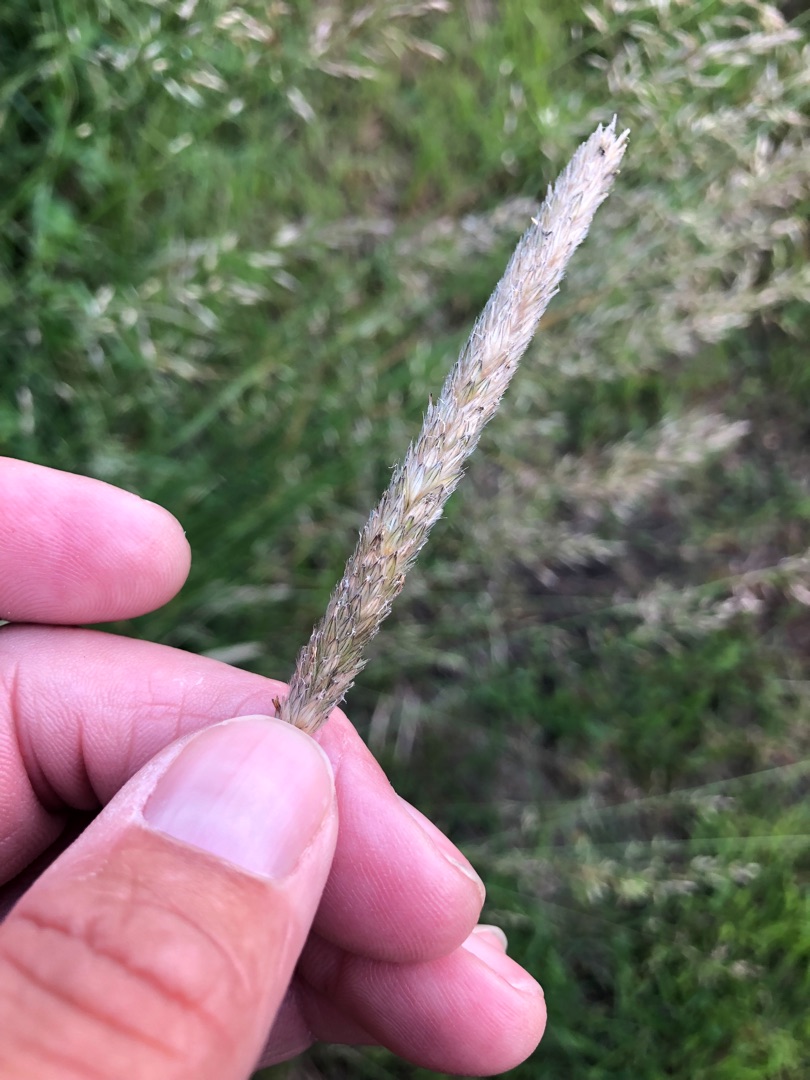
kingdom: Plantae
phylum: Tracheophyta
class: Liliopsida
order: Poales
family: Poaceae
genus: Alopecurus
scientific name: Alopecurus pratensis
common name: Eng-rævehale
